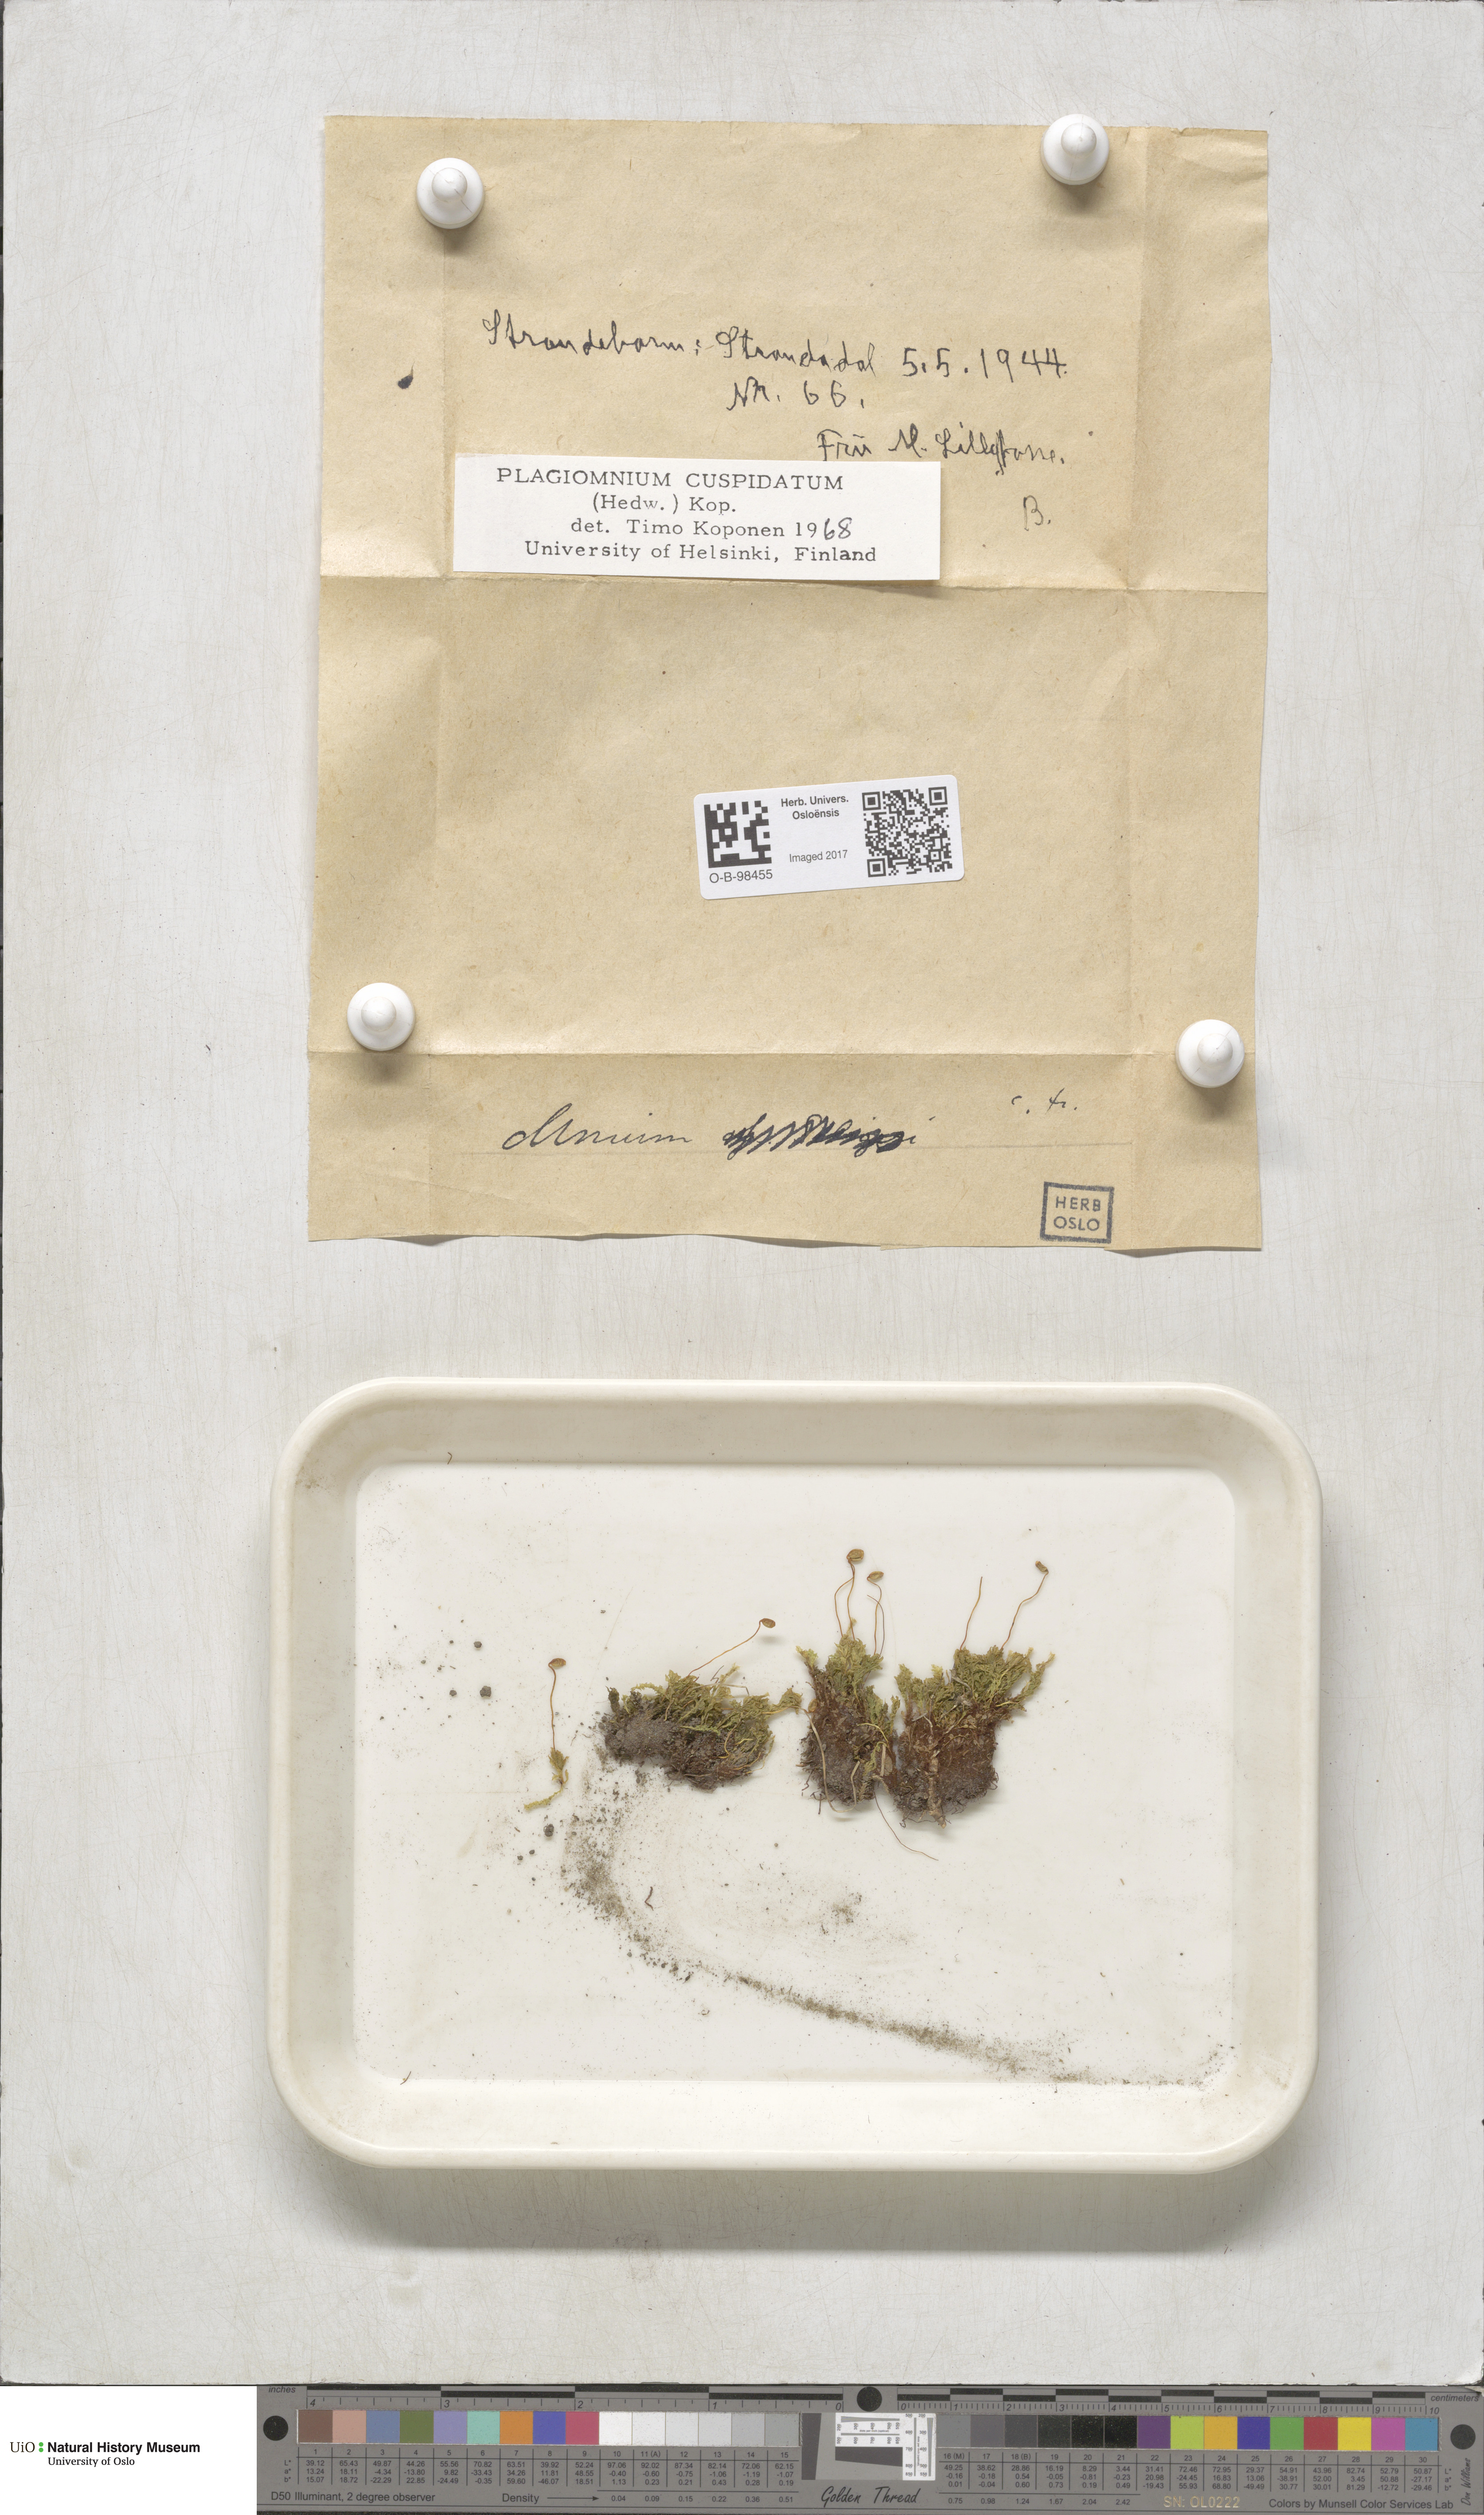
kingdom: Plantae
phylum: Bryophyta
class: Bryopsida
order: Bryales
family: Mniaceae
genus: Plagiomnium
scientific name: Plagiomnium cuspidatum
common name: Woodsy leafy moss
